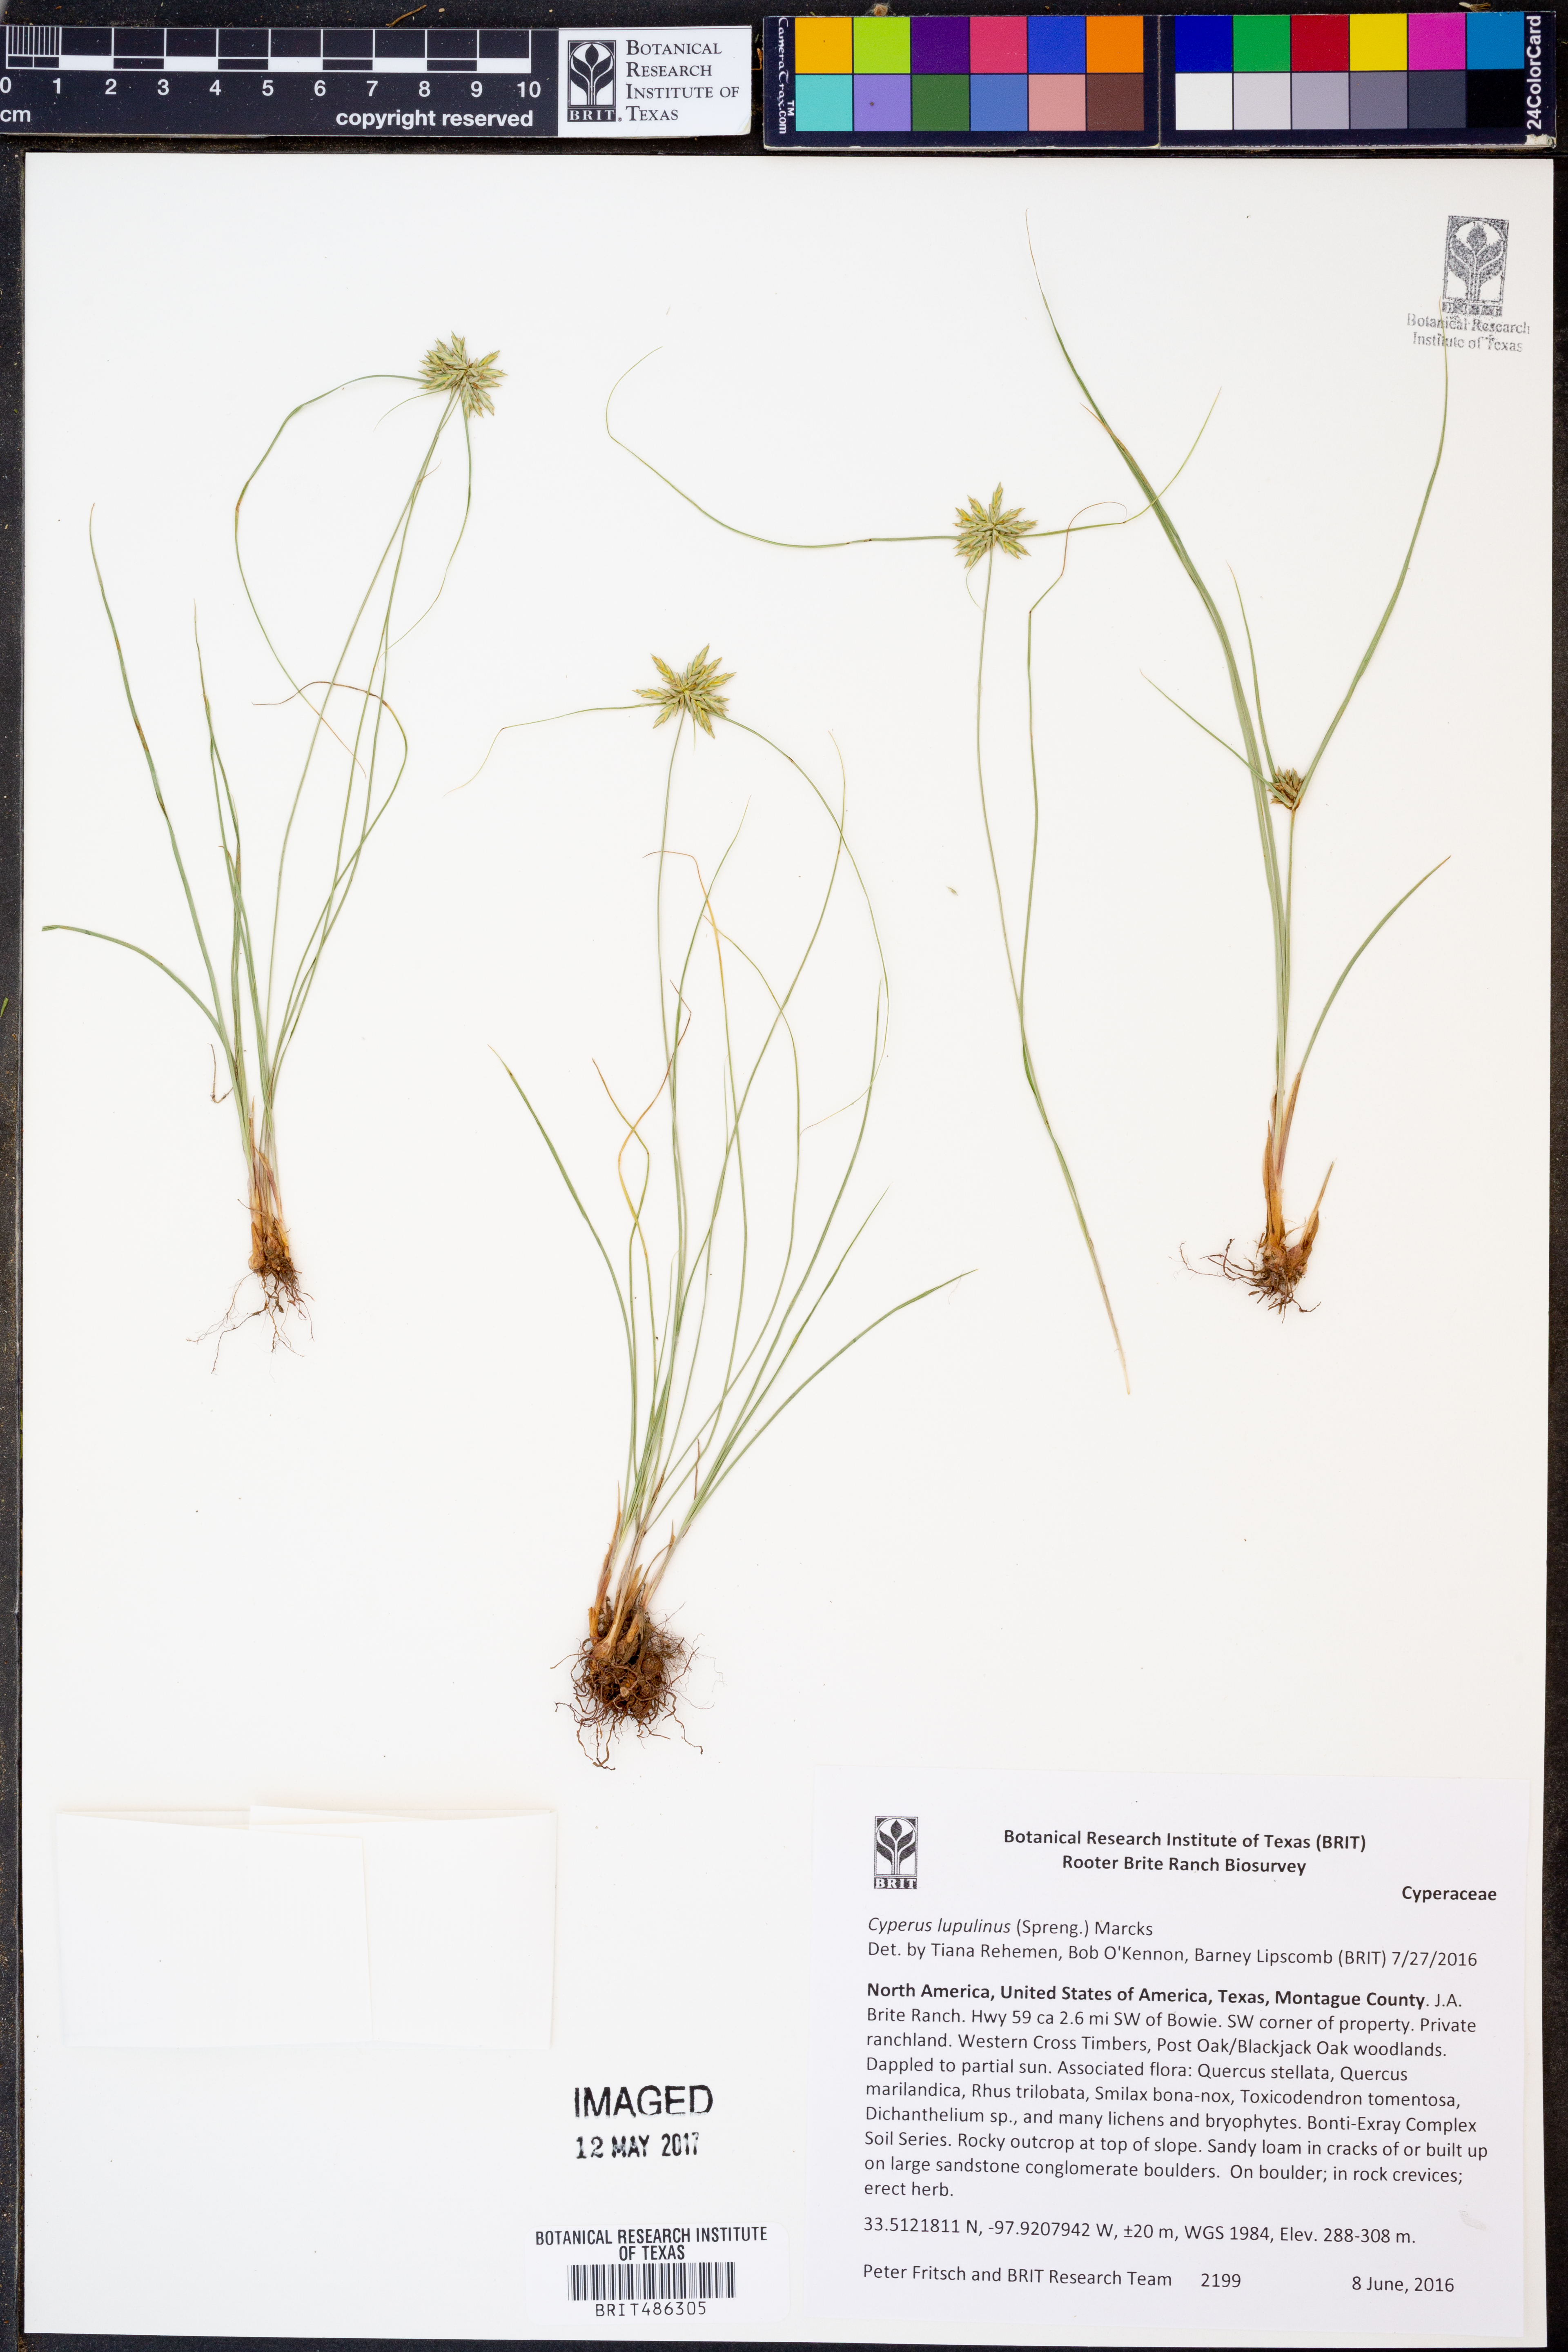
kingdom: Plantae
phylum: Tracheophyta
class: Liliopsida
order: Poales
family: Cyperaceae
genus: Cyperus
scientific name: Cyperus lupulinus
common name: Great plains flatsedge
